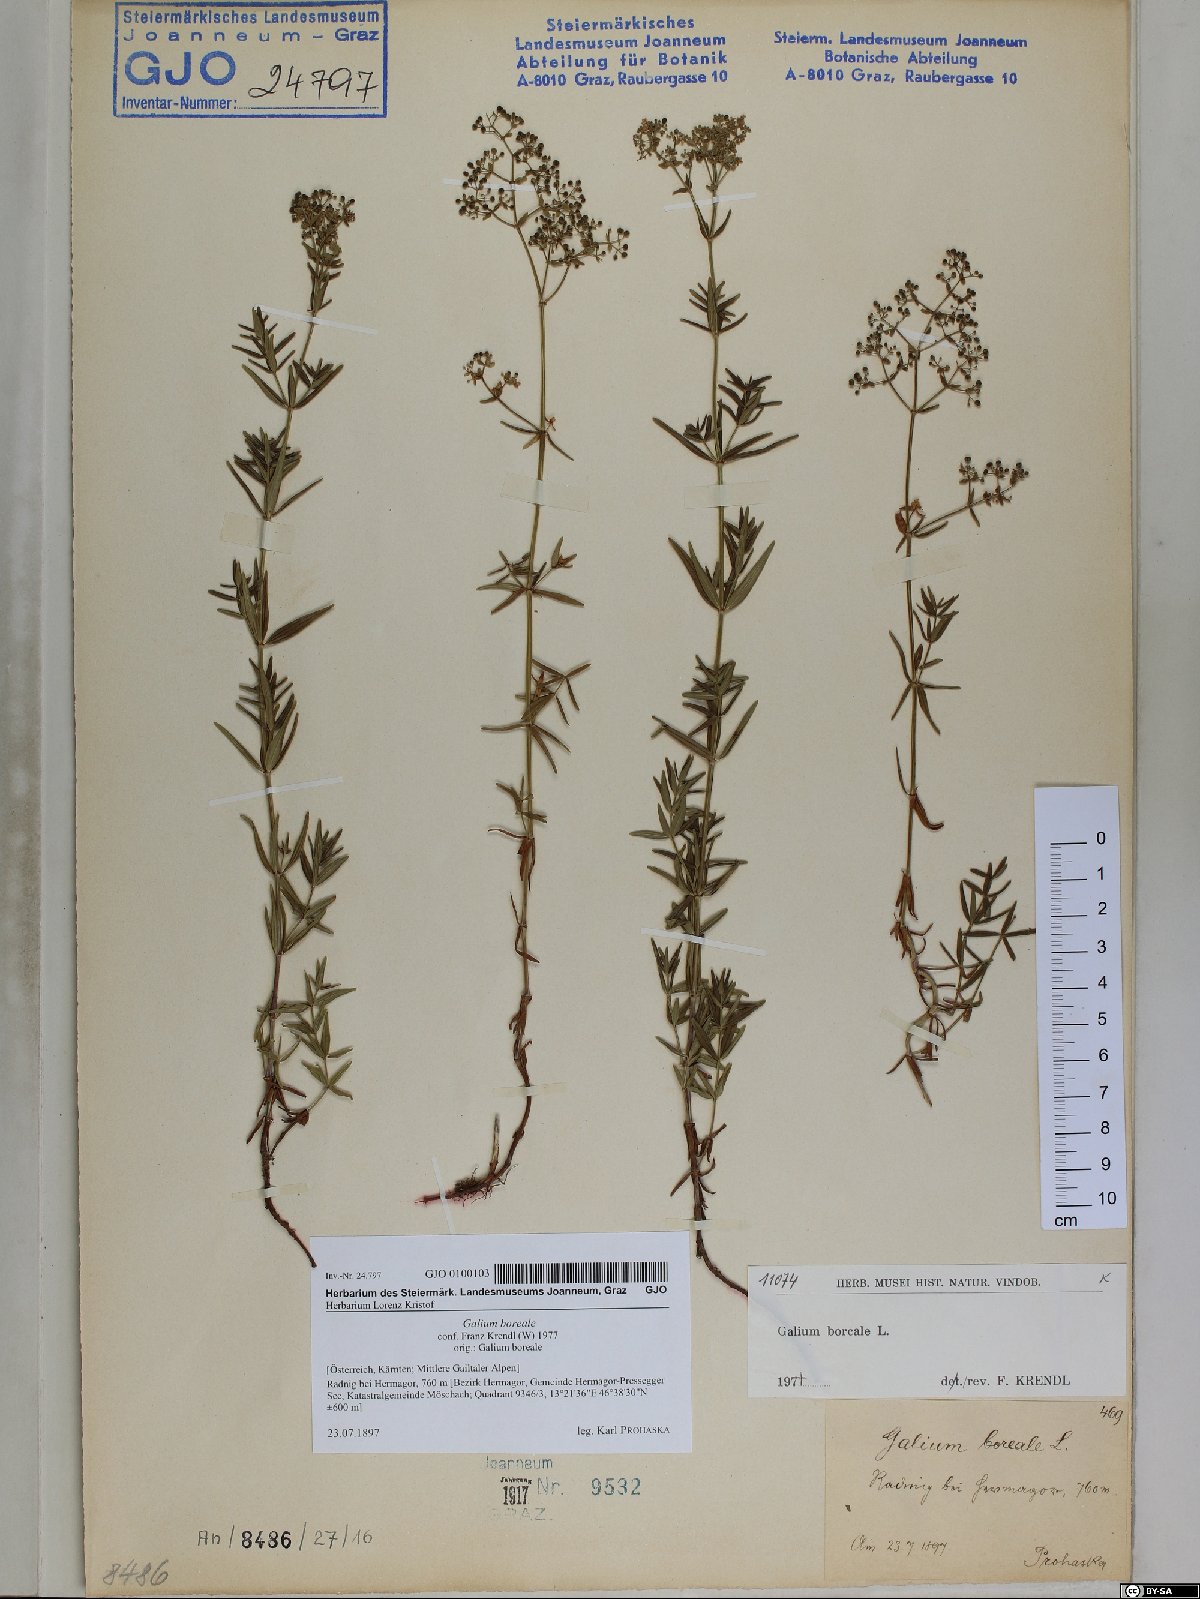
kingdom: Plantae
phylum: Tracheophyta
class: Magnoliopsida
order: Gentianales
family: Rubiaceae
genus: Galium
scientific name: Galium boreale
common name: Northern bedstraw
